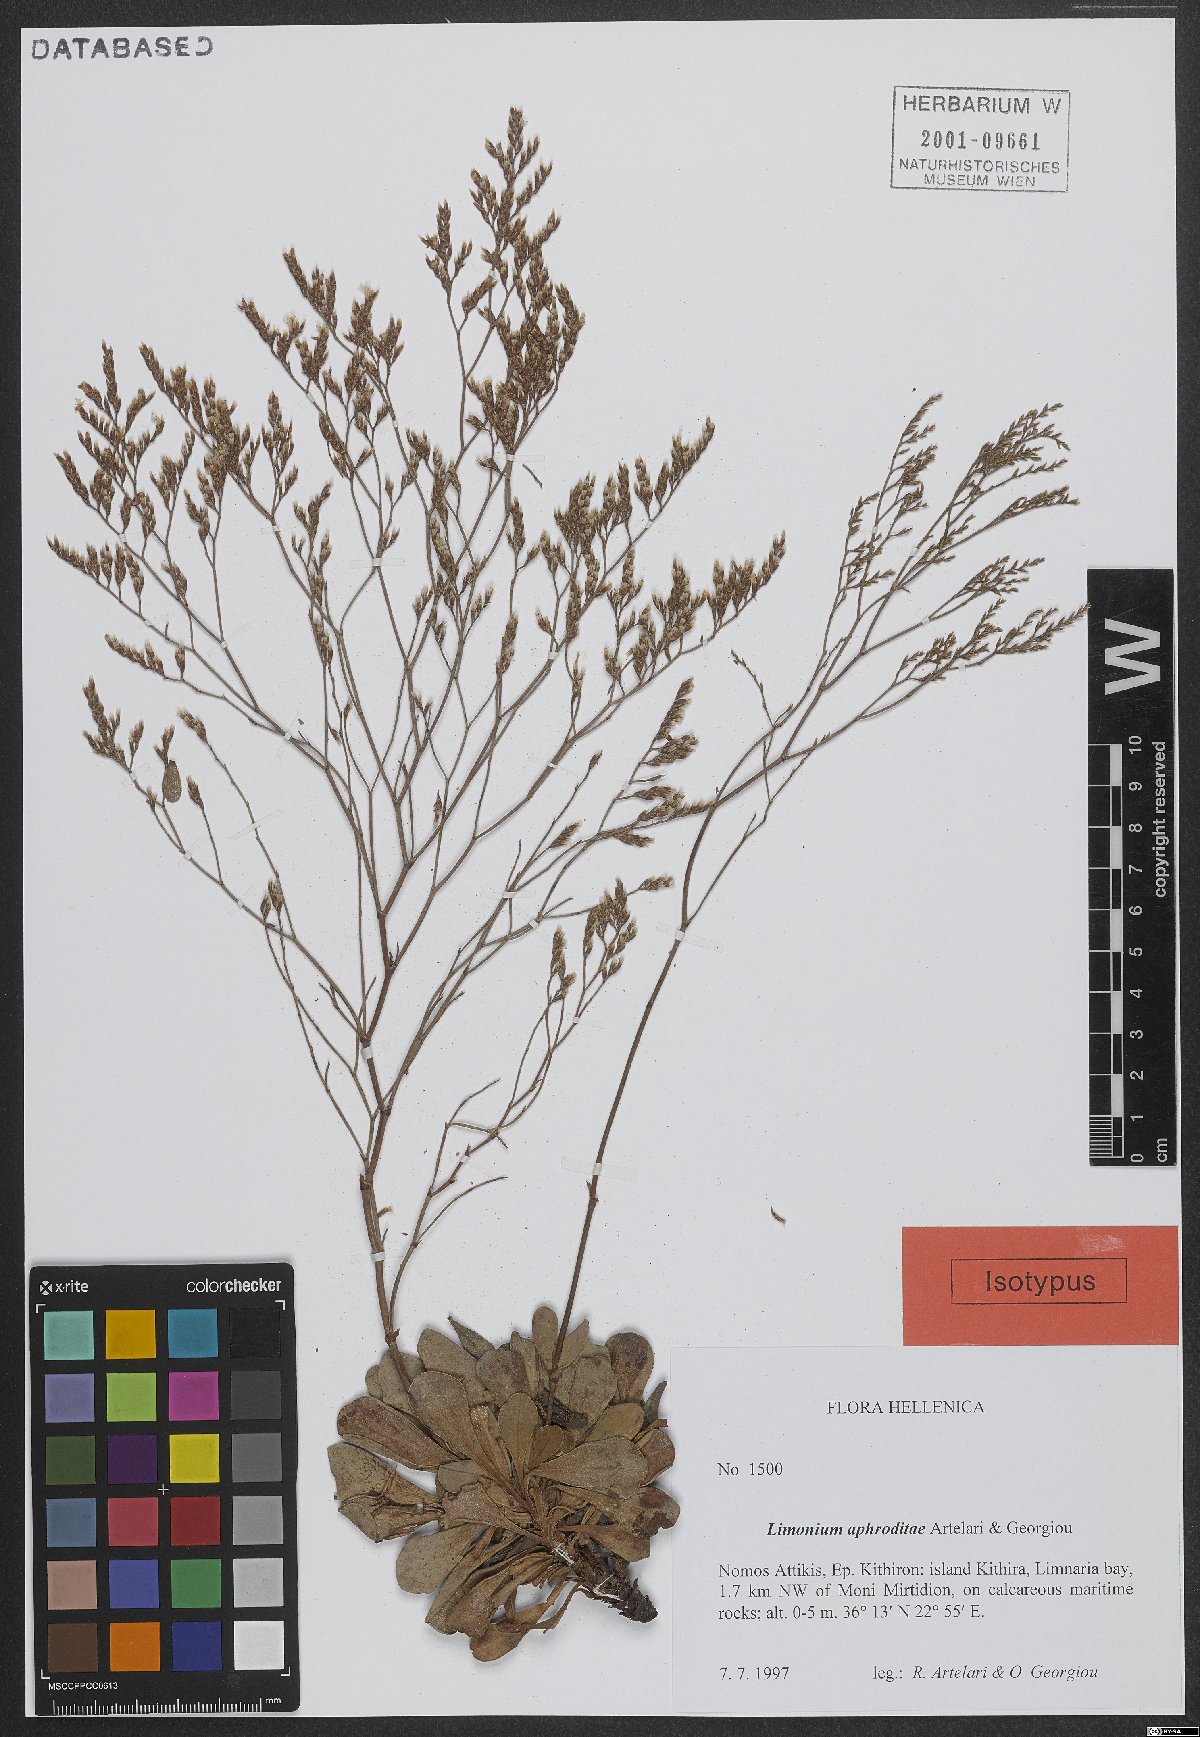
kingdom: Plantae
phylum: Tracheophyta
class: Magnoliopsida
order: Caryophyllales
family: Plumbaginaceae
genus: Limonium
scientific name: Limonium aphroditae
